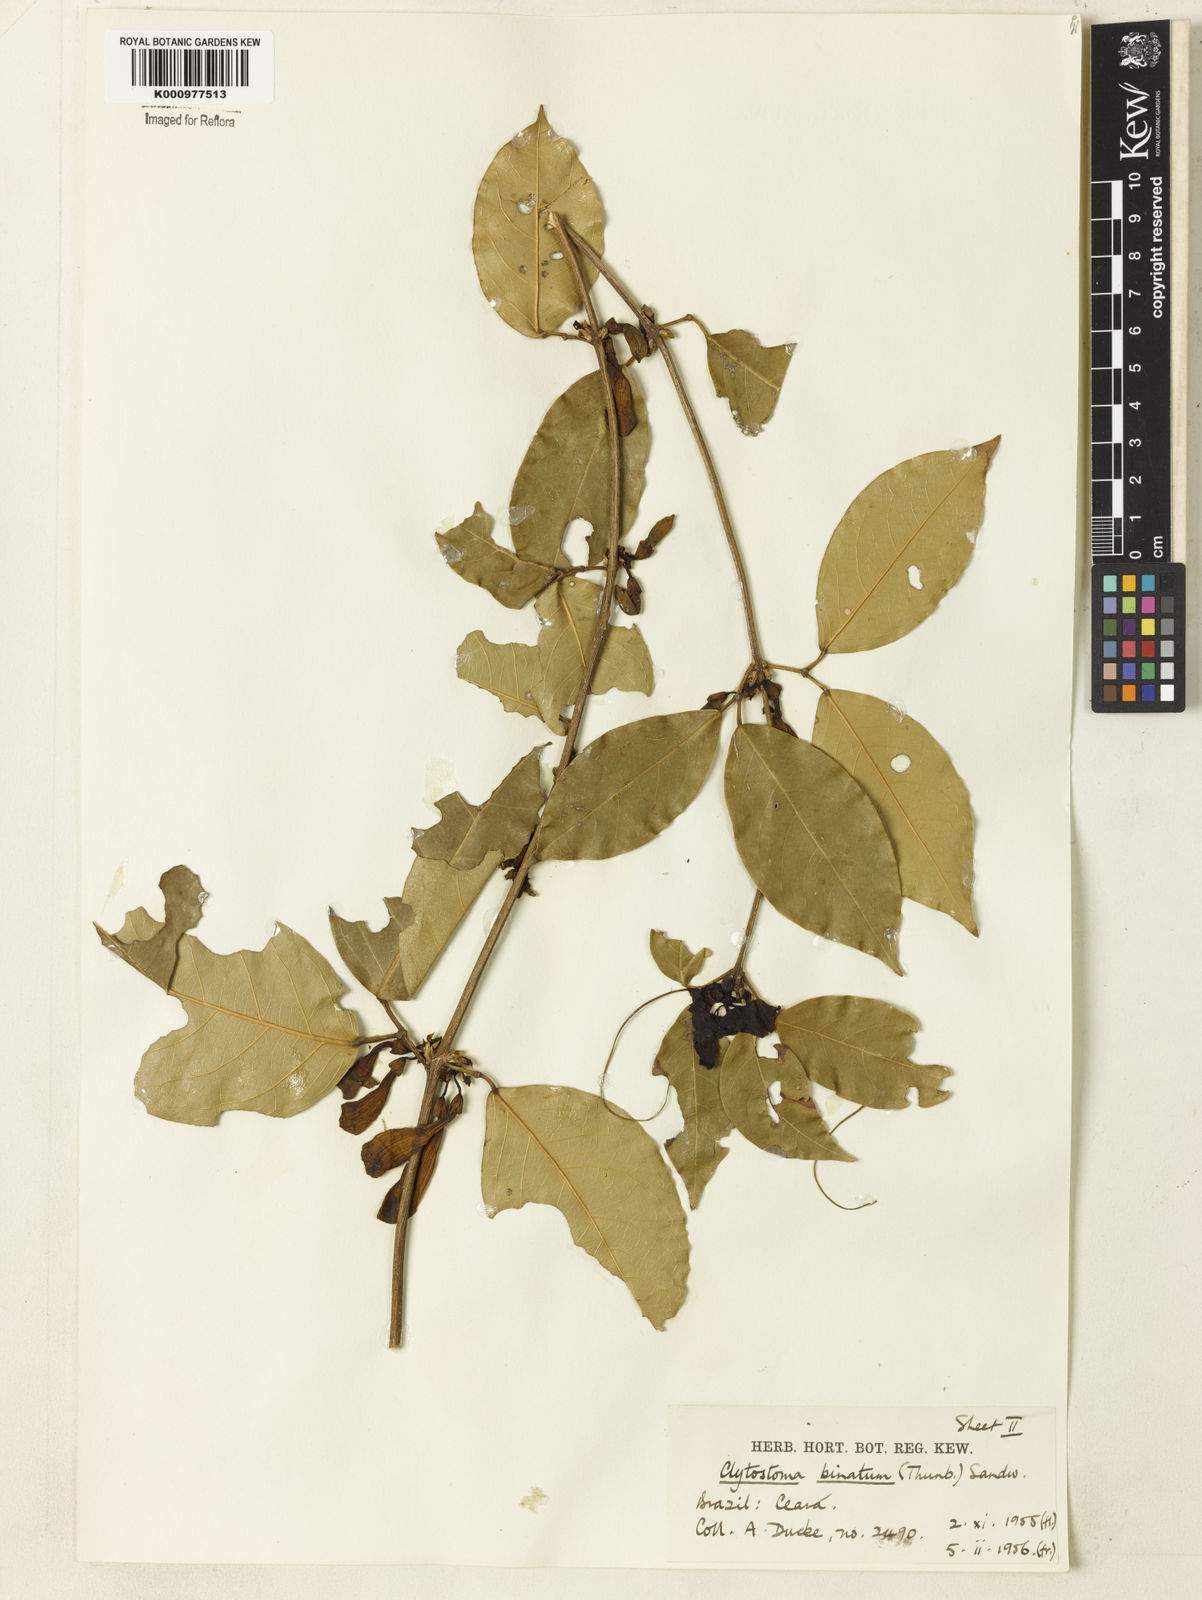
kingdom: Plantae
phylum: Tracheophyta
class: Magnoliopsida
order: Lamiales
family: Bignoniaceae
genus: Bignonia
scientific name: Bignonia binata
